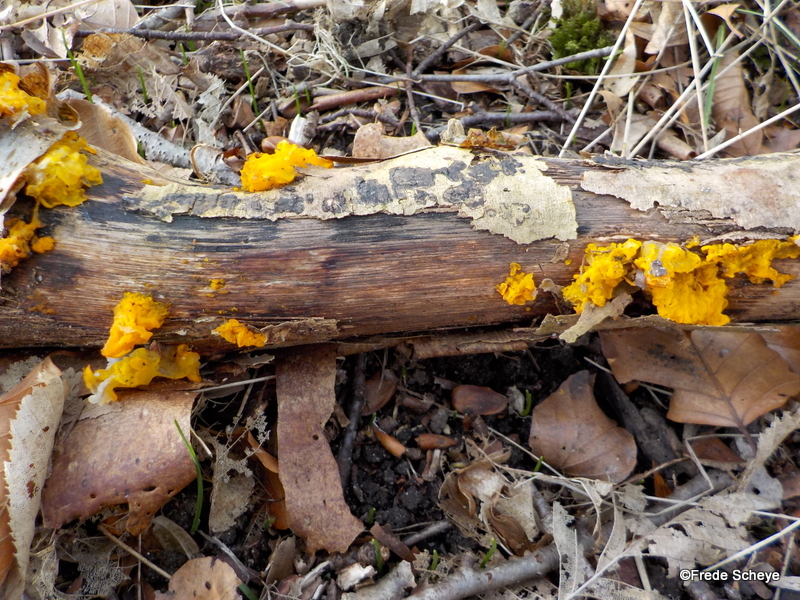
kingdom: Fungi
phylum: Basidiomycota
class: Tremellomycetes
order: Tremellales
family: Tremellaceae
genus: Tremella
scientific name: Tremella mesenterica
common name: gul bævresvamp
